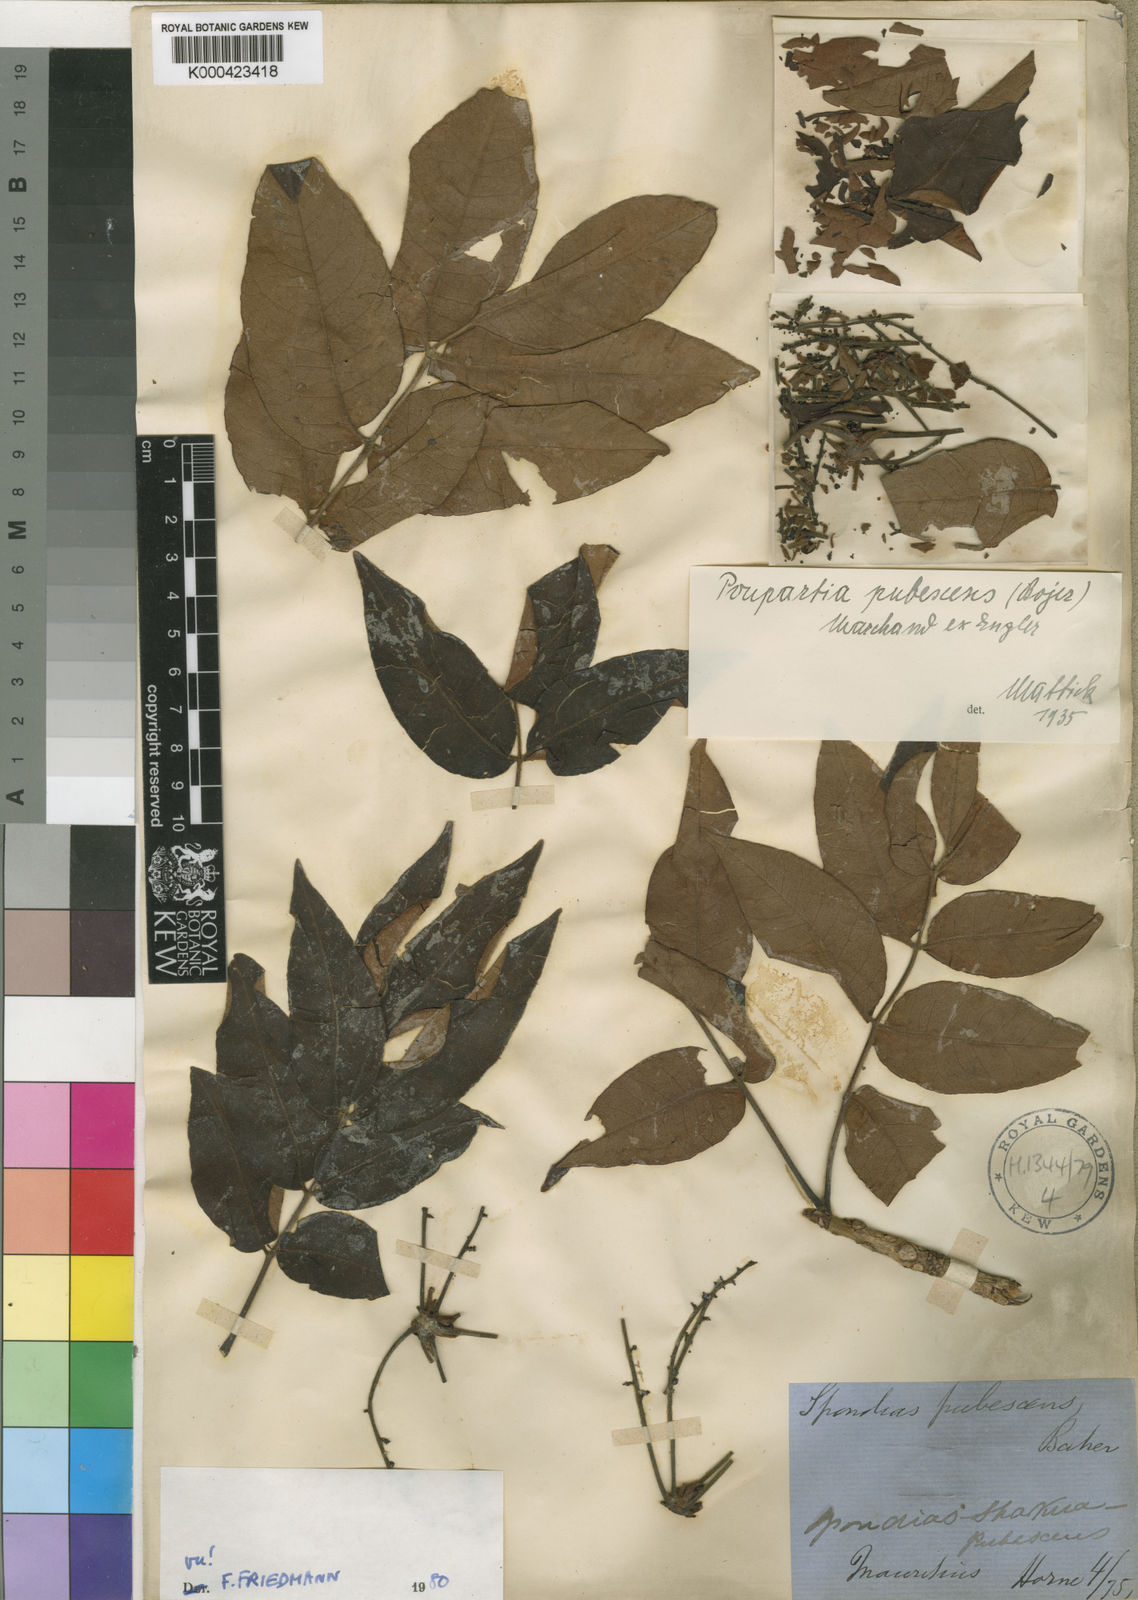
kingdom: Plantae
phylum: Tracheophyta
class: Magnoliopsida
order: Sapindales
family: Anacardiaceae
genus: Poupartia
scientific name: Poupartia pubescens
